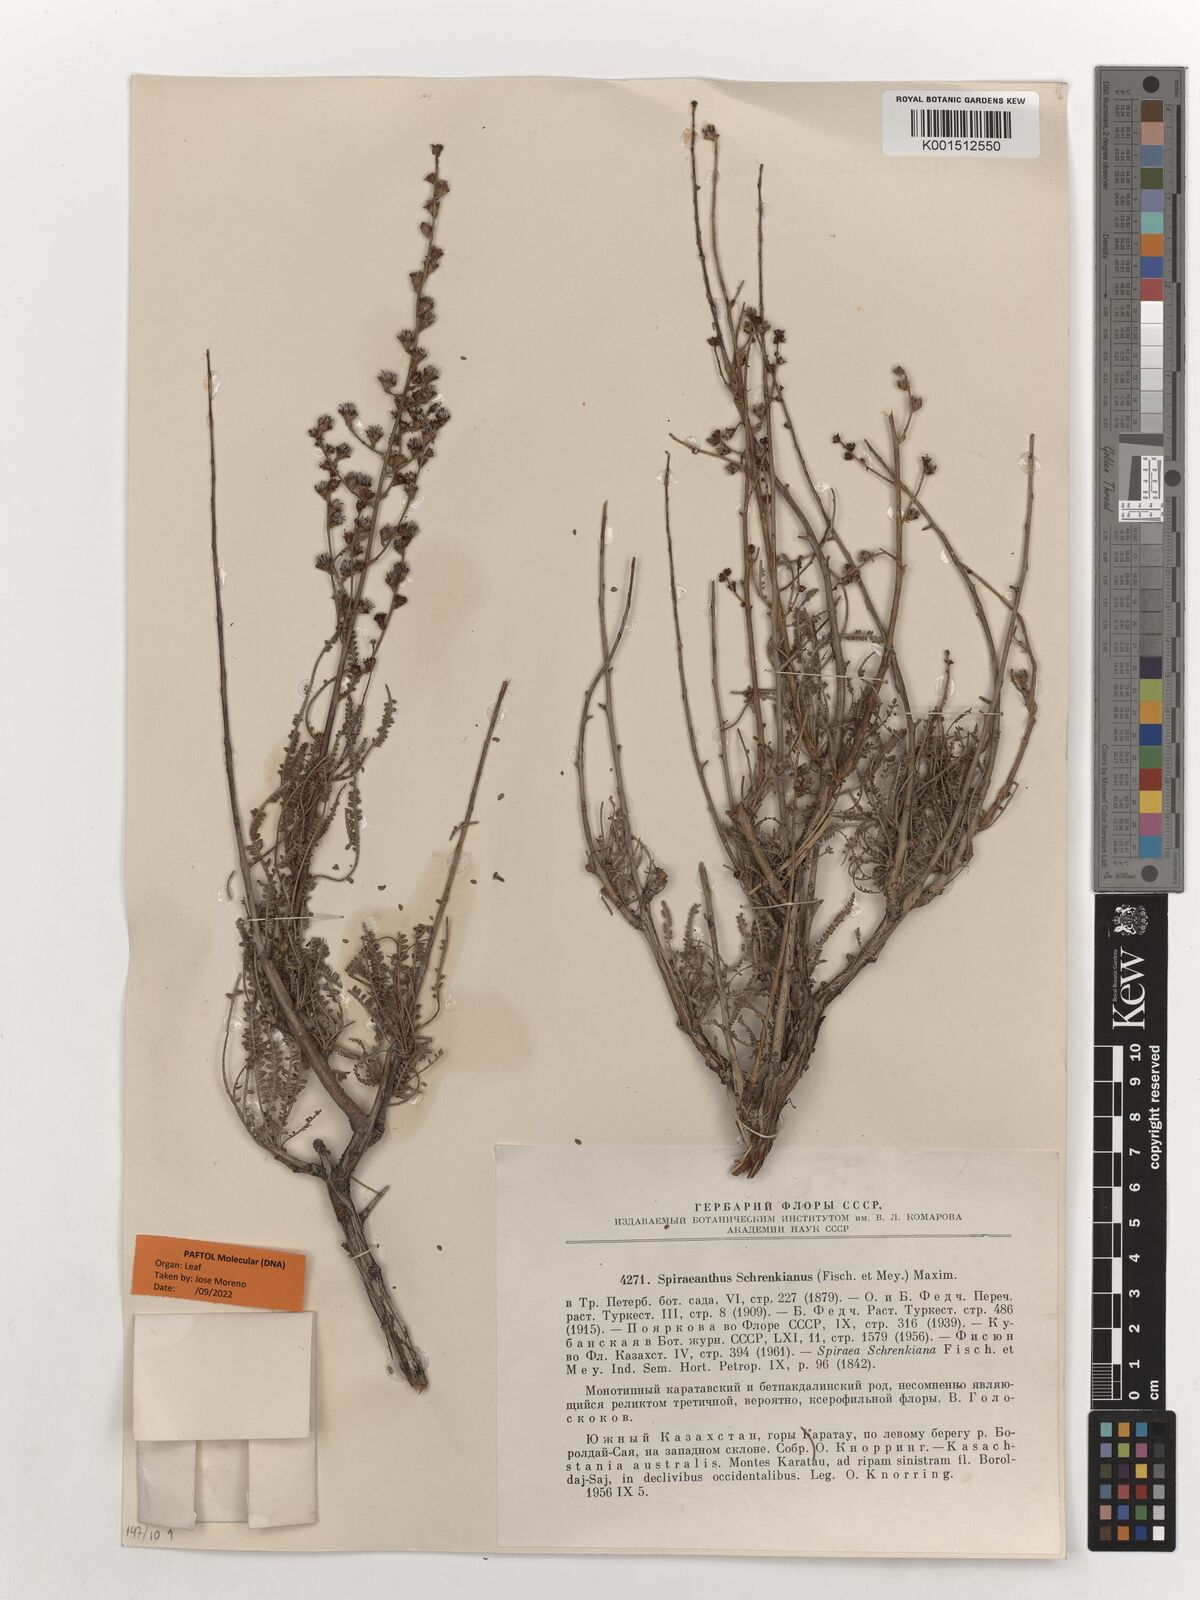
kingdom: Plantae
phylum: Tracheophyta
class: Magnoliopsida
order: Rosales
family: Rosaceae
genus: Spiraeanthus
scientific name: Spiraeanthus schrenckianus
